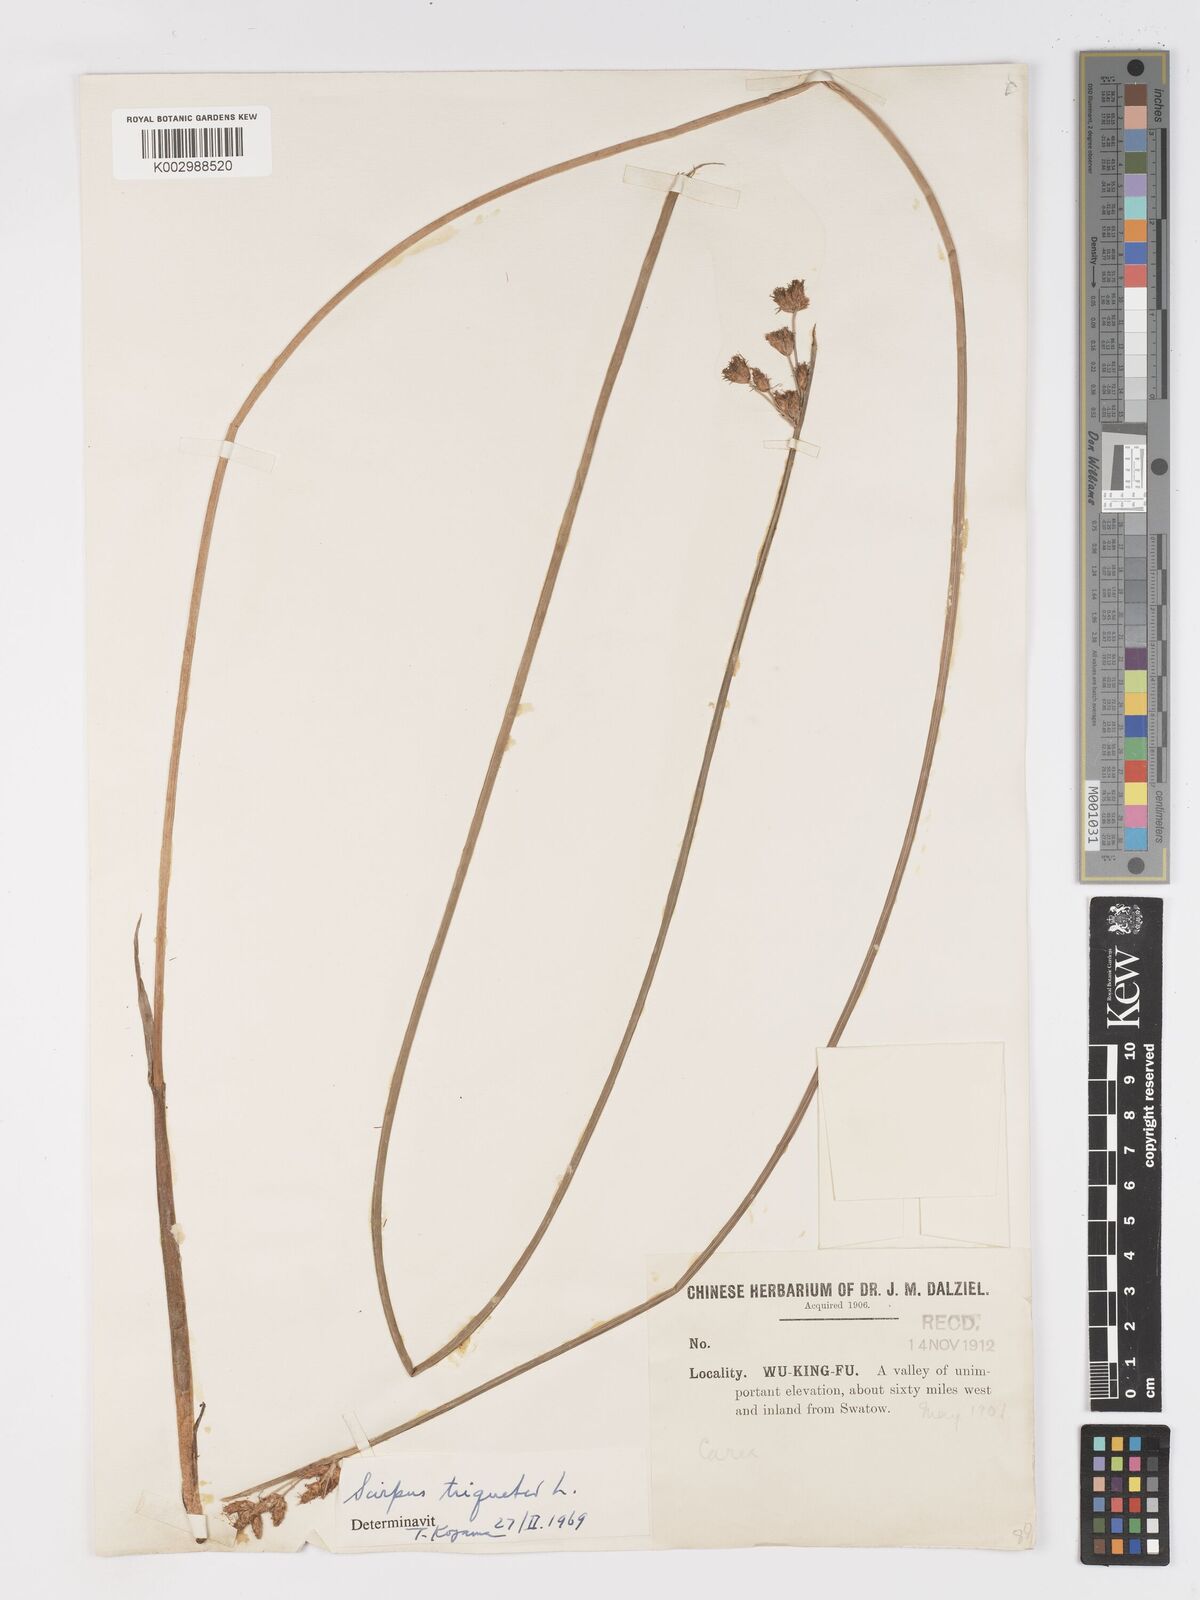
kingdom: Plantae
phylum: Tracheophyta
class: Liliopsida
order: Poales
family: Cyperaceae
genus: Schoenoplectus
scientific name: Schoenoplectus triqueter
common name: Triangular club-rush
